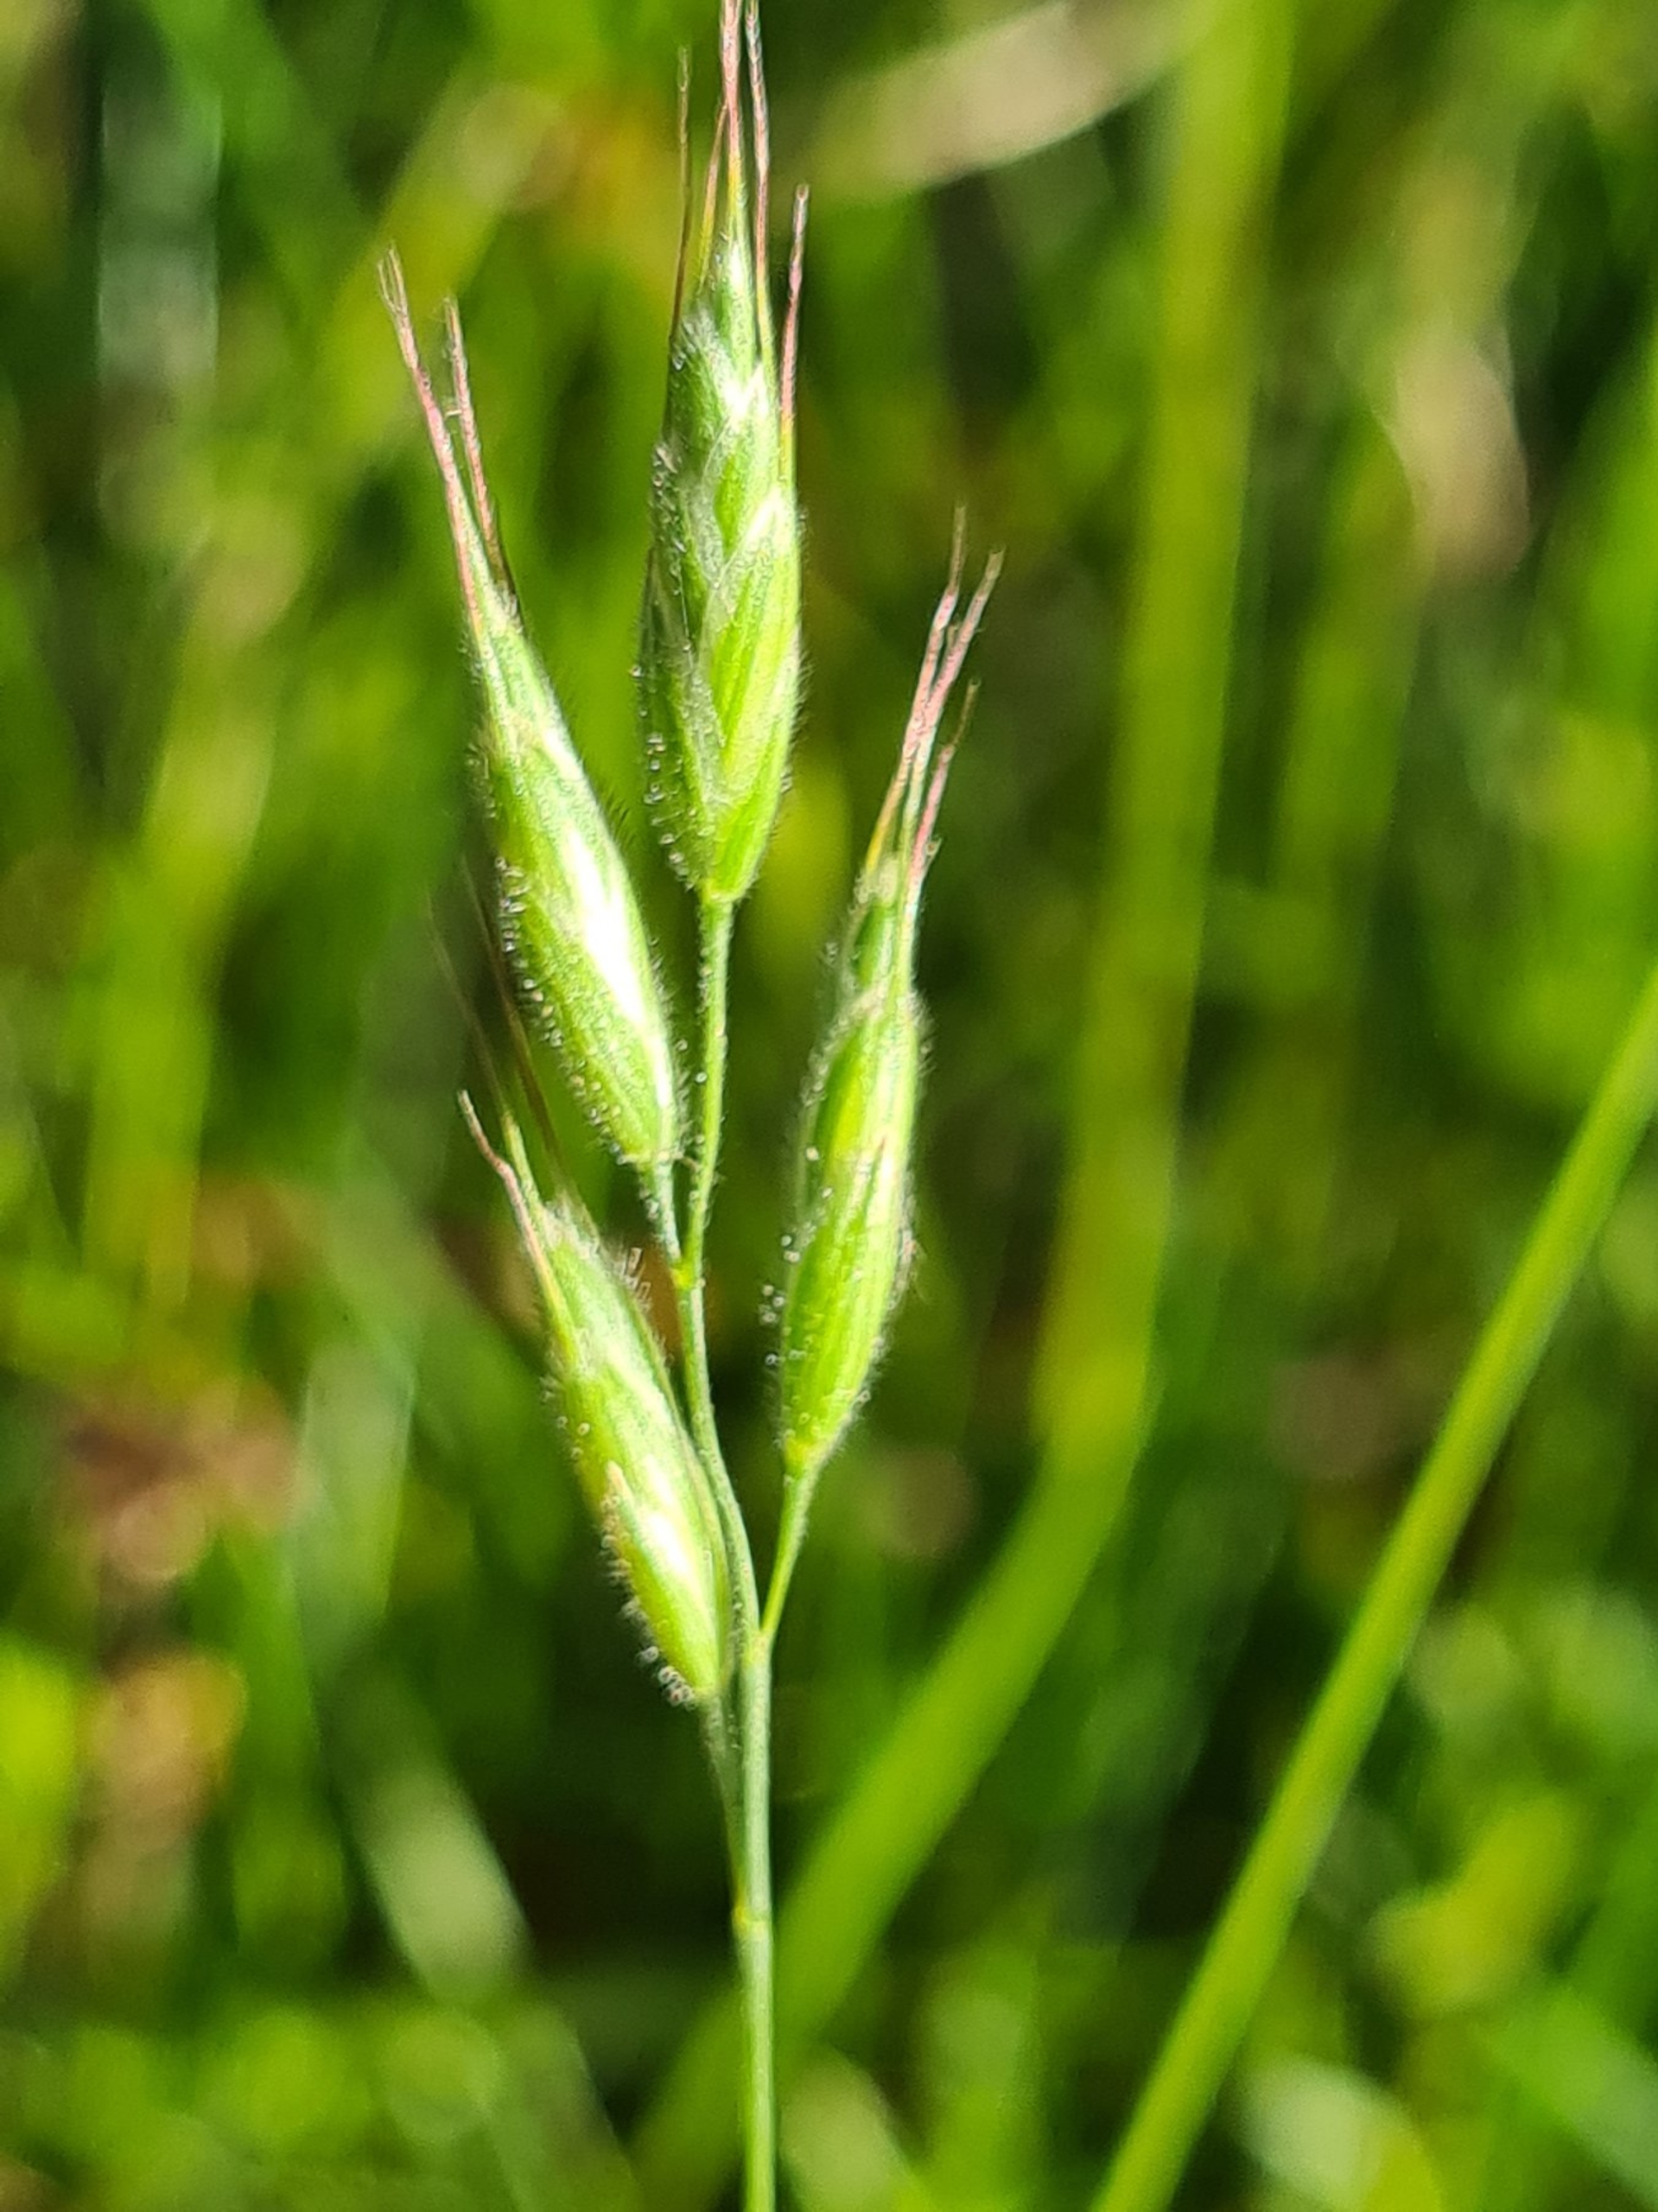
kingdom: Plantae
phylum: Tracheophyta
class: Liliopsida
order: Poales
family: Poaceae
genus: Bromus
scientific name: Bromus hordeaceus
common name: Blød hejre
